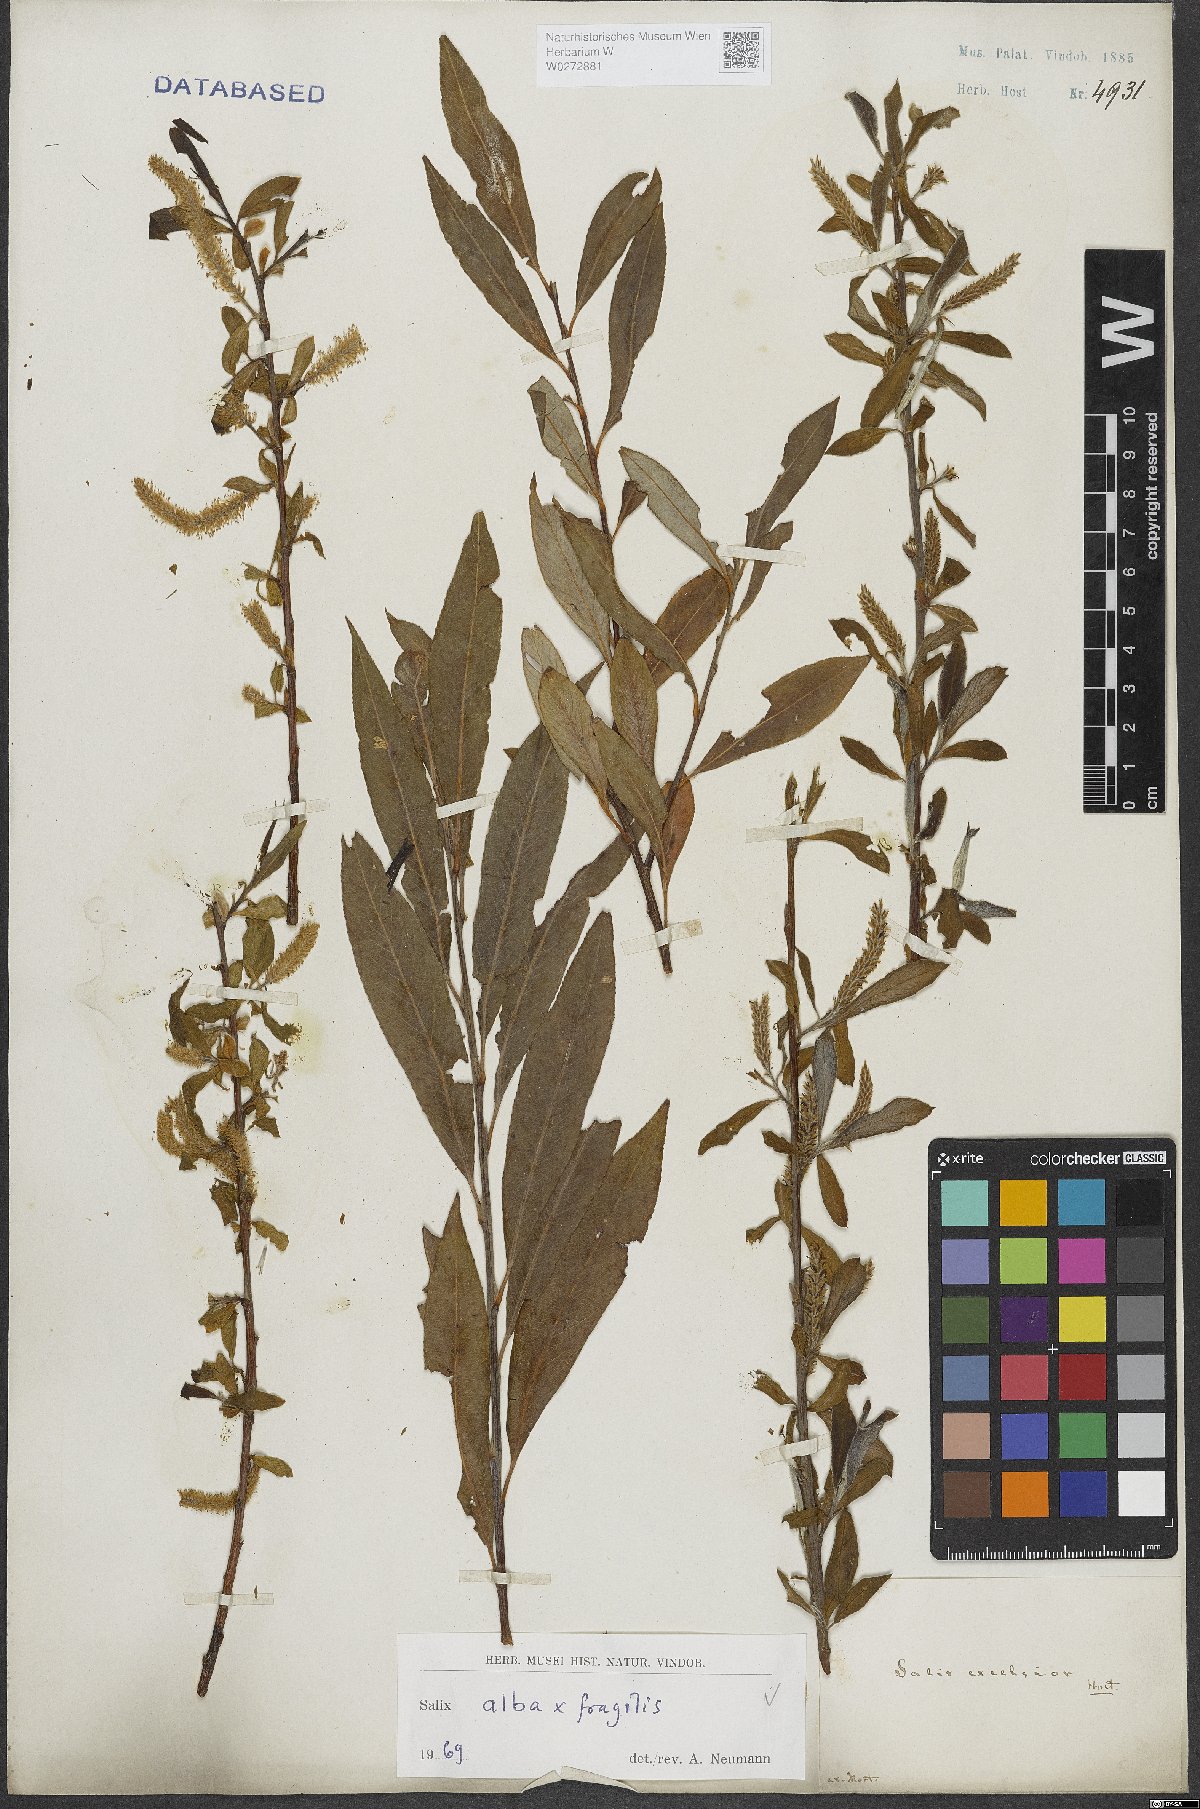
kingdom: Plantae
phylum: Tracheophyta
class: Magnoliopsida
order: Malpighiales
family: Salicaceae
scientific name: Salicaceae
